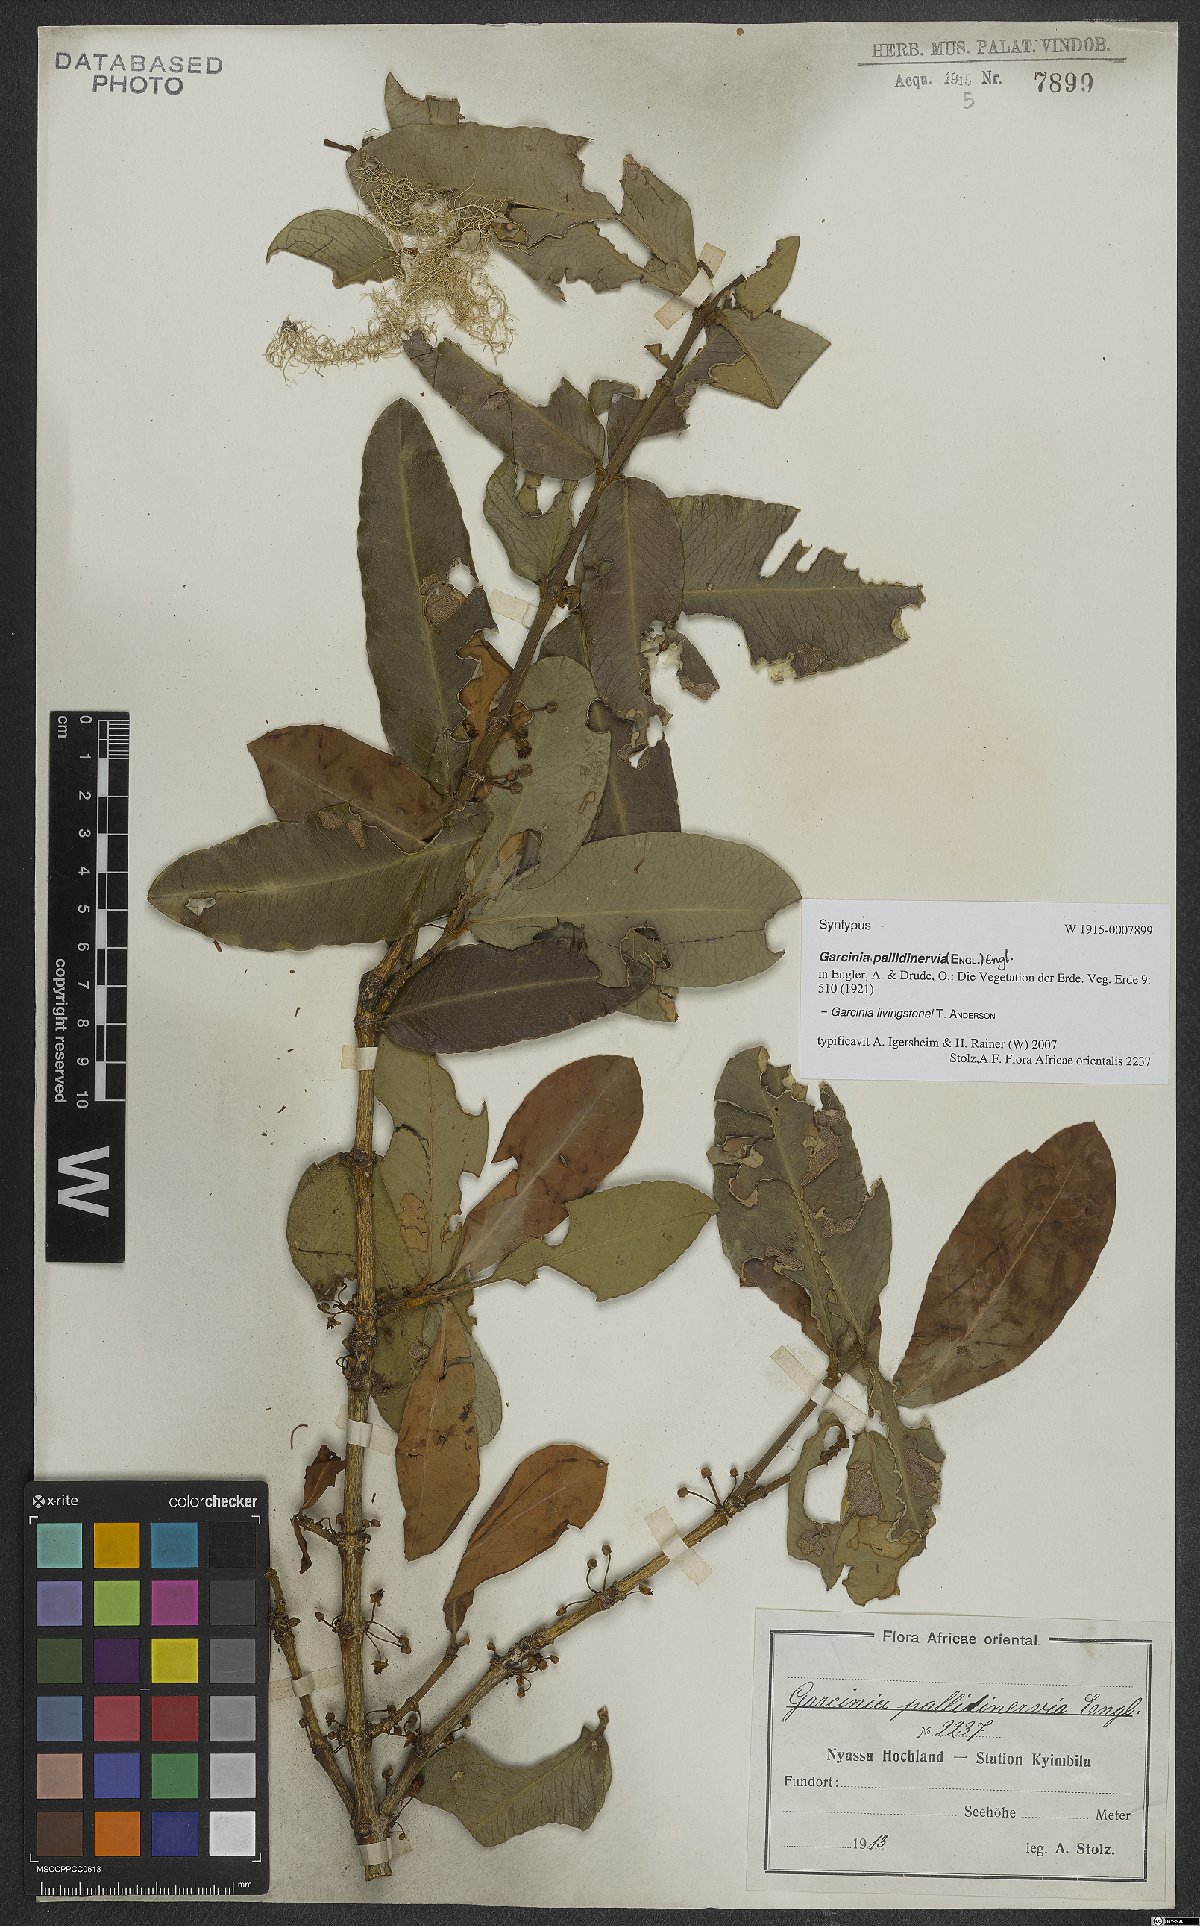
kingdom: Plantae
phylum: Tracheophyta
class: Magnoliopsida
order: Malpighiales
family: Clusiaceae
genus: Garcinia
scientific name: Garcinia livingstonei
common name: African mangosteen
